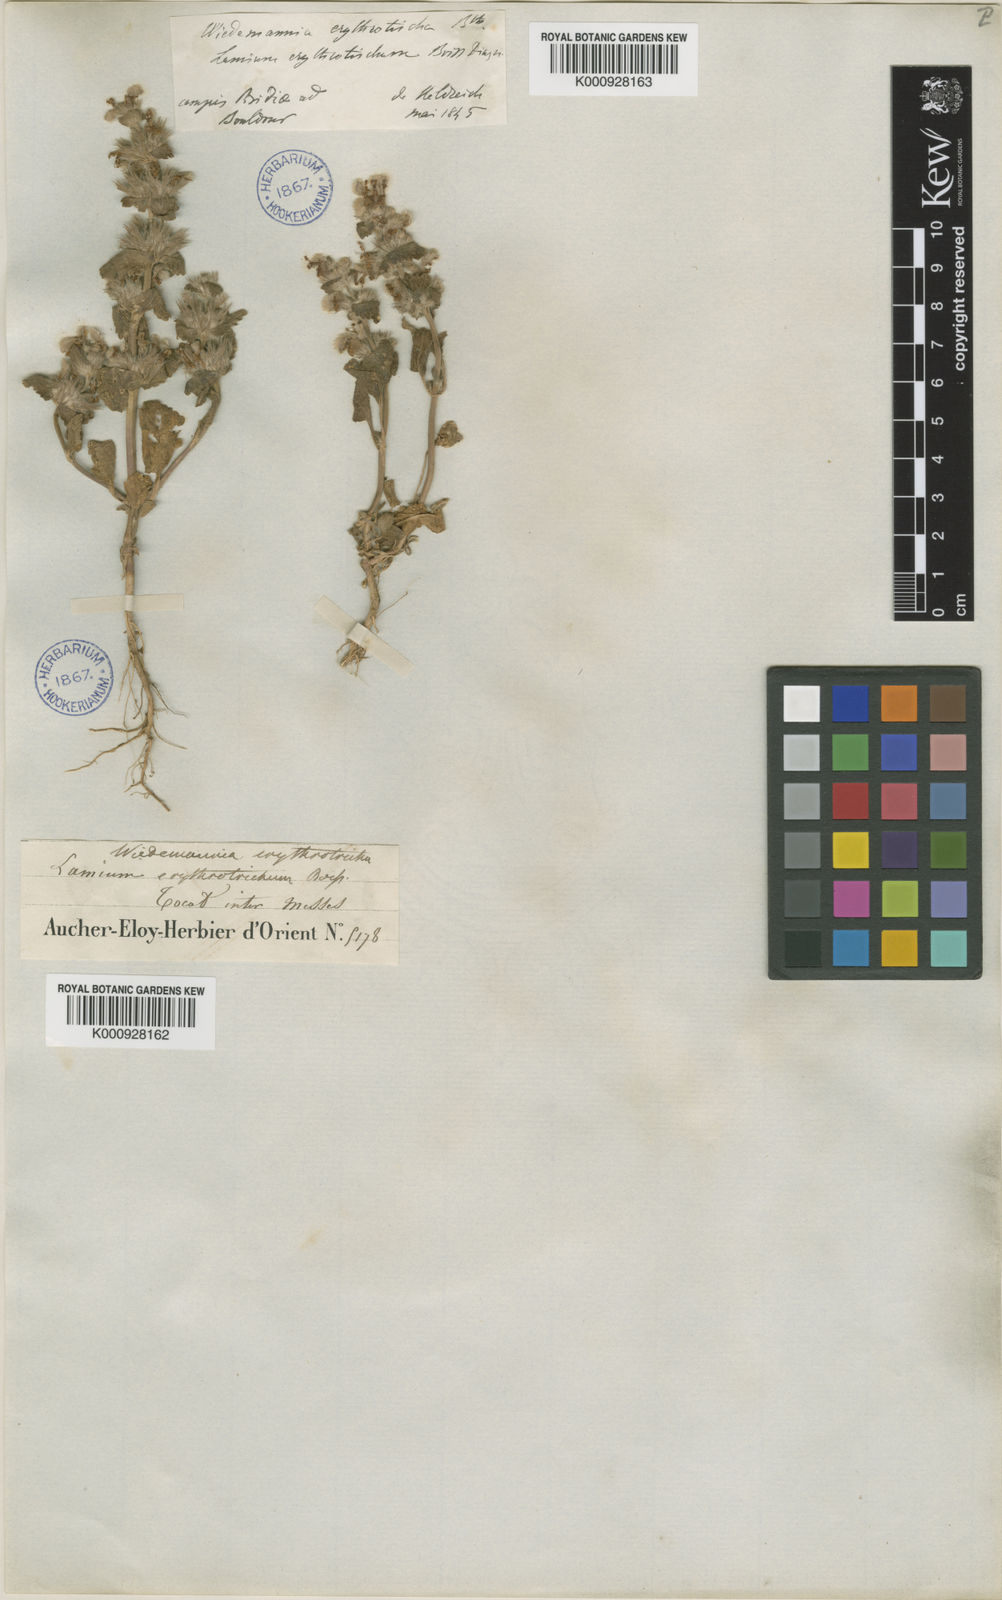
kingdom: Plantae
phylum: Tracheophyta
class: Magnoliopsida
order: Lamiales
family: Lamiaceae
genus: Lamium
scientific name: Lamium orientale
